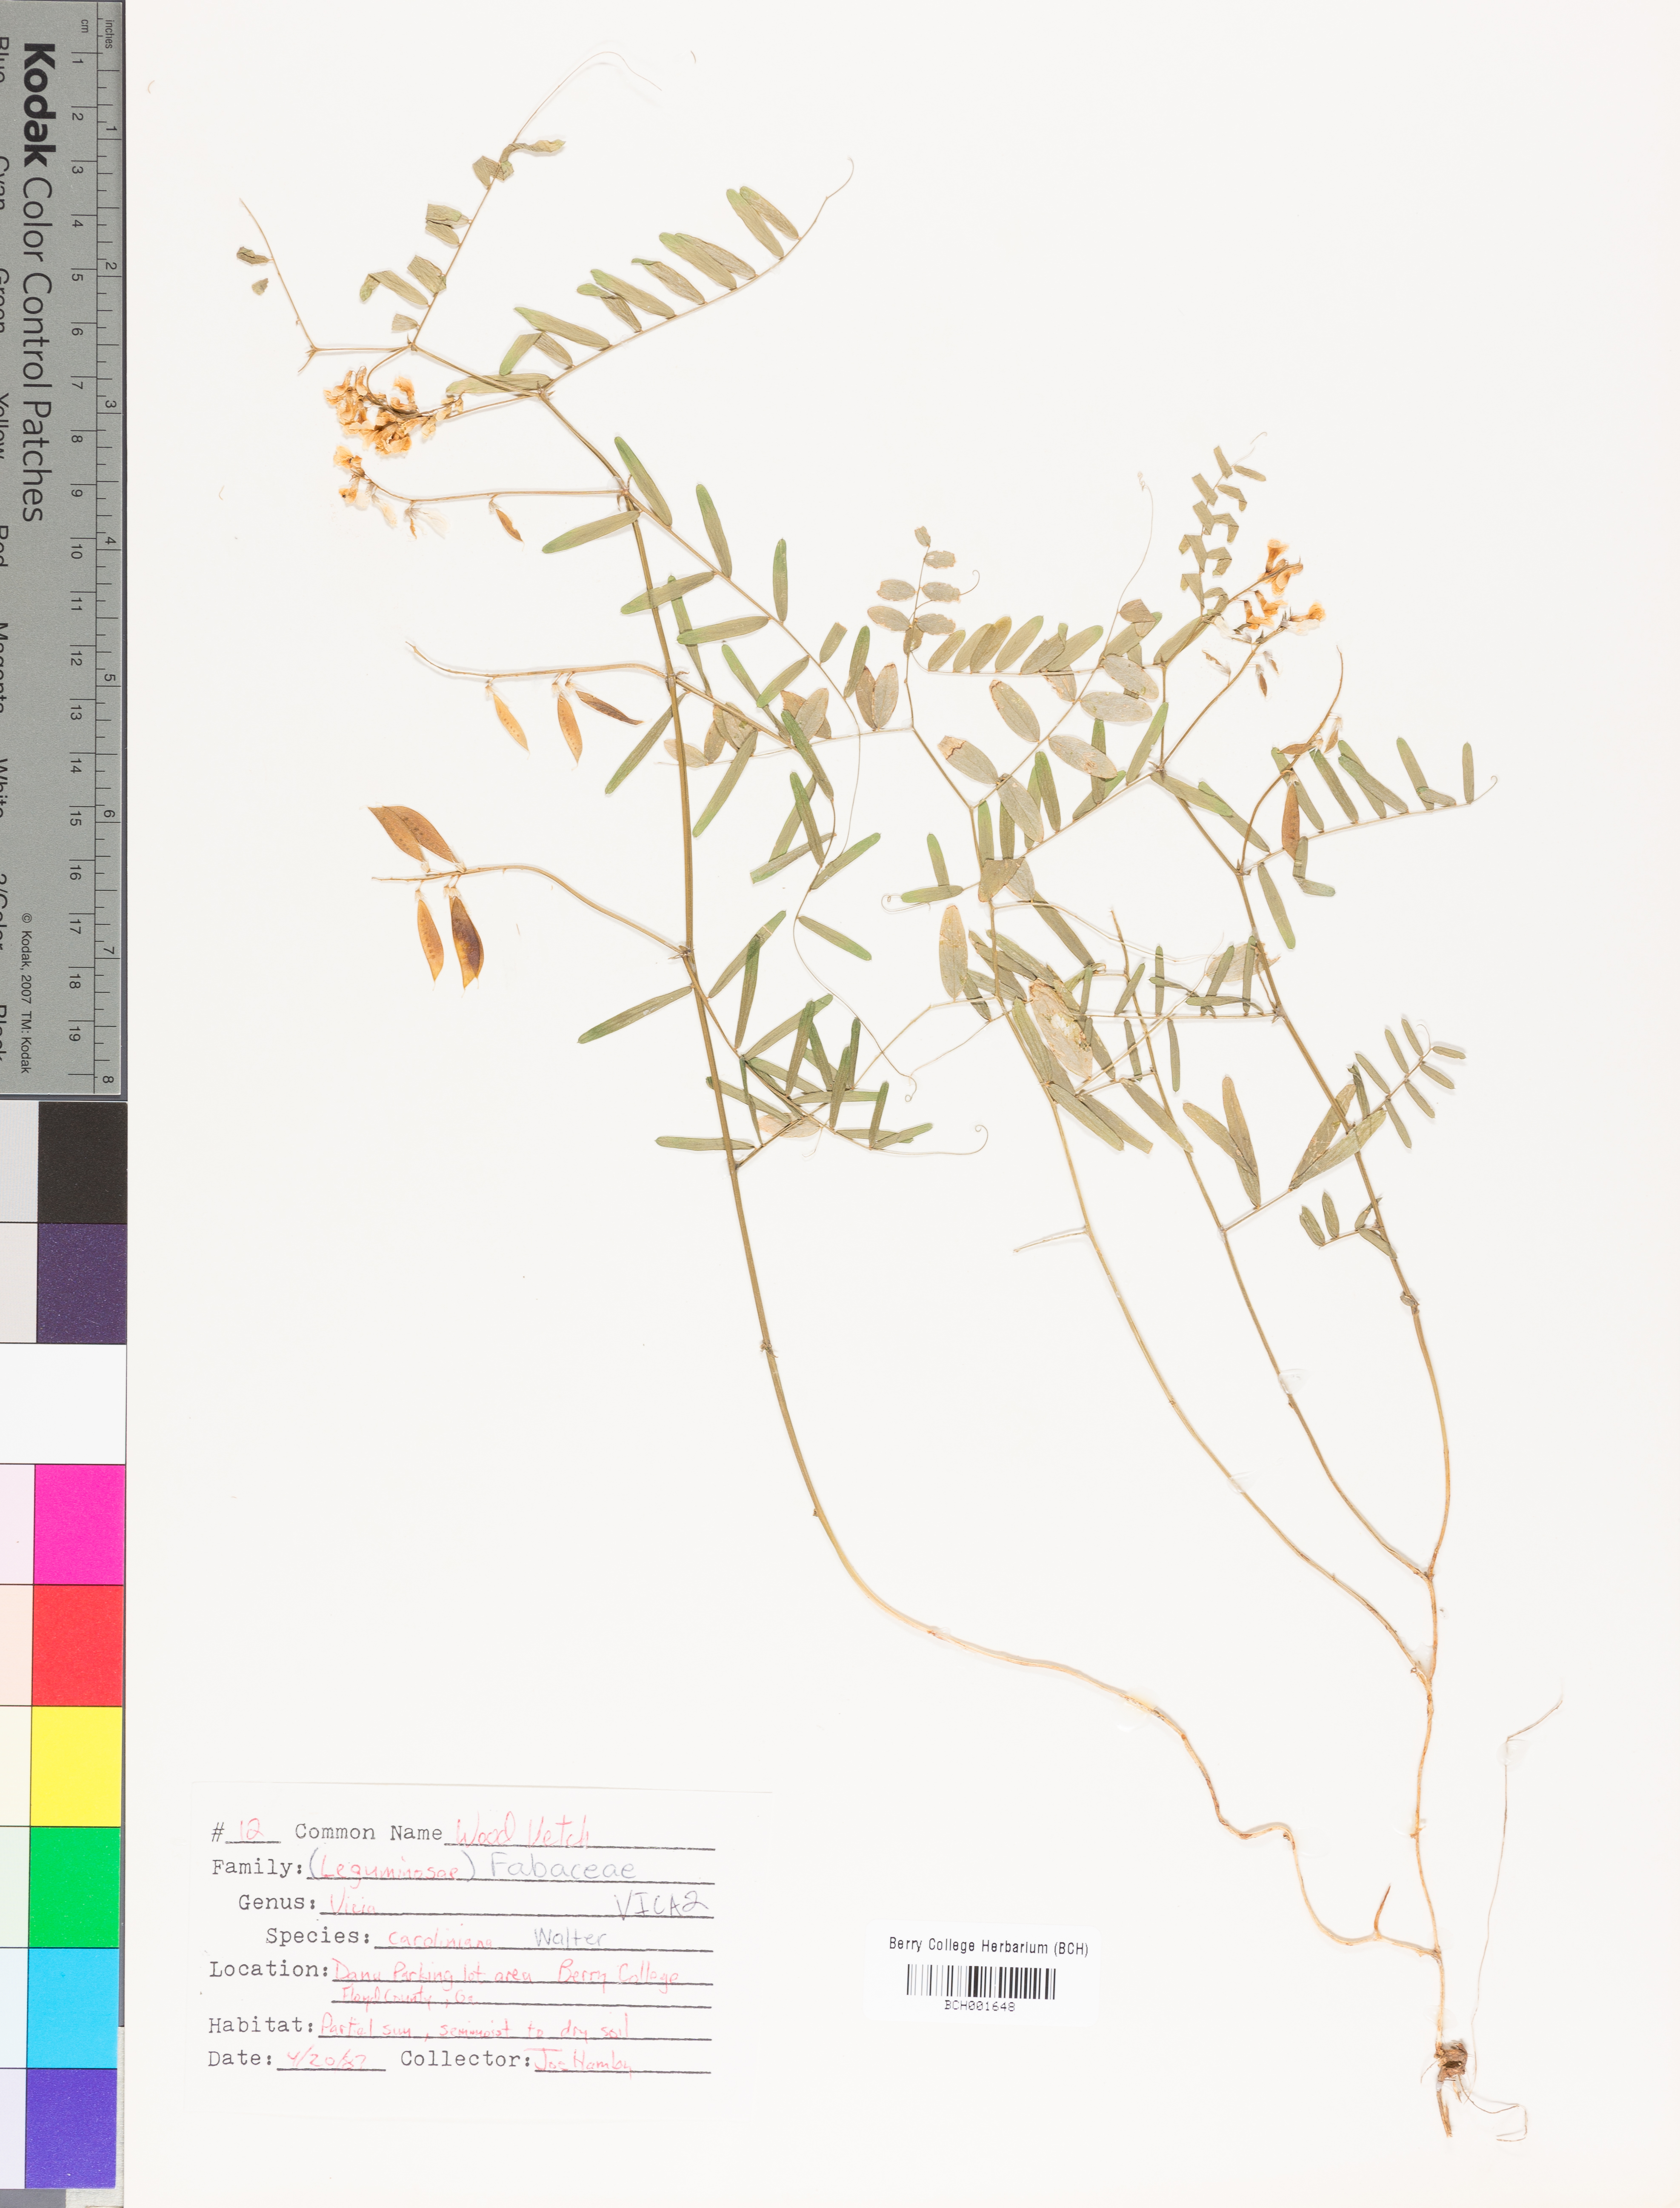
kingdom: Plantae
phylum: Tracheophyta
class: Magnoliopsida
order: Fabales
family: Fabaceae
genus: Vicia
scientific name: Vicia caroliniana
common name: Carolina vetch
